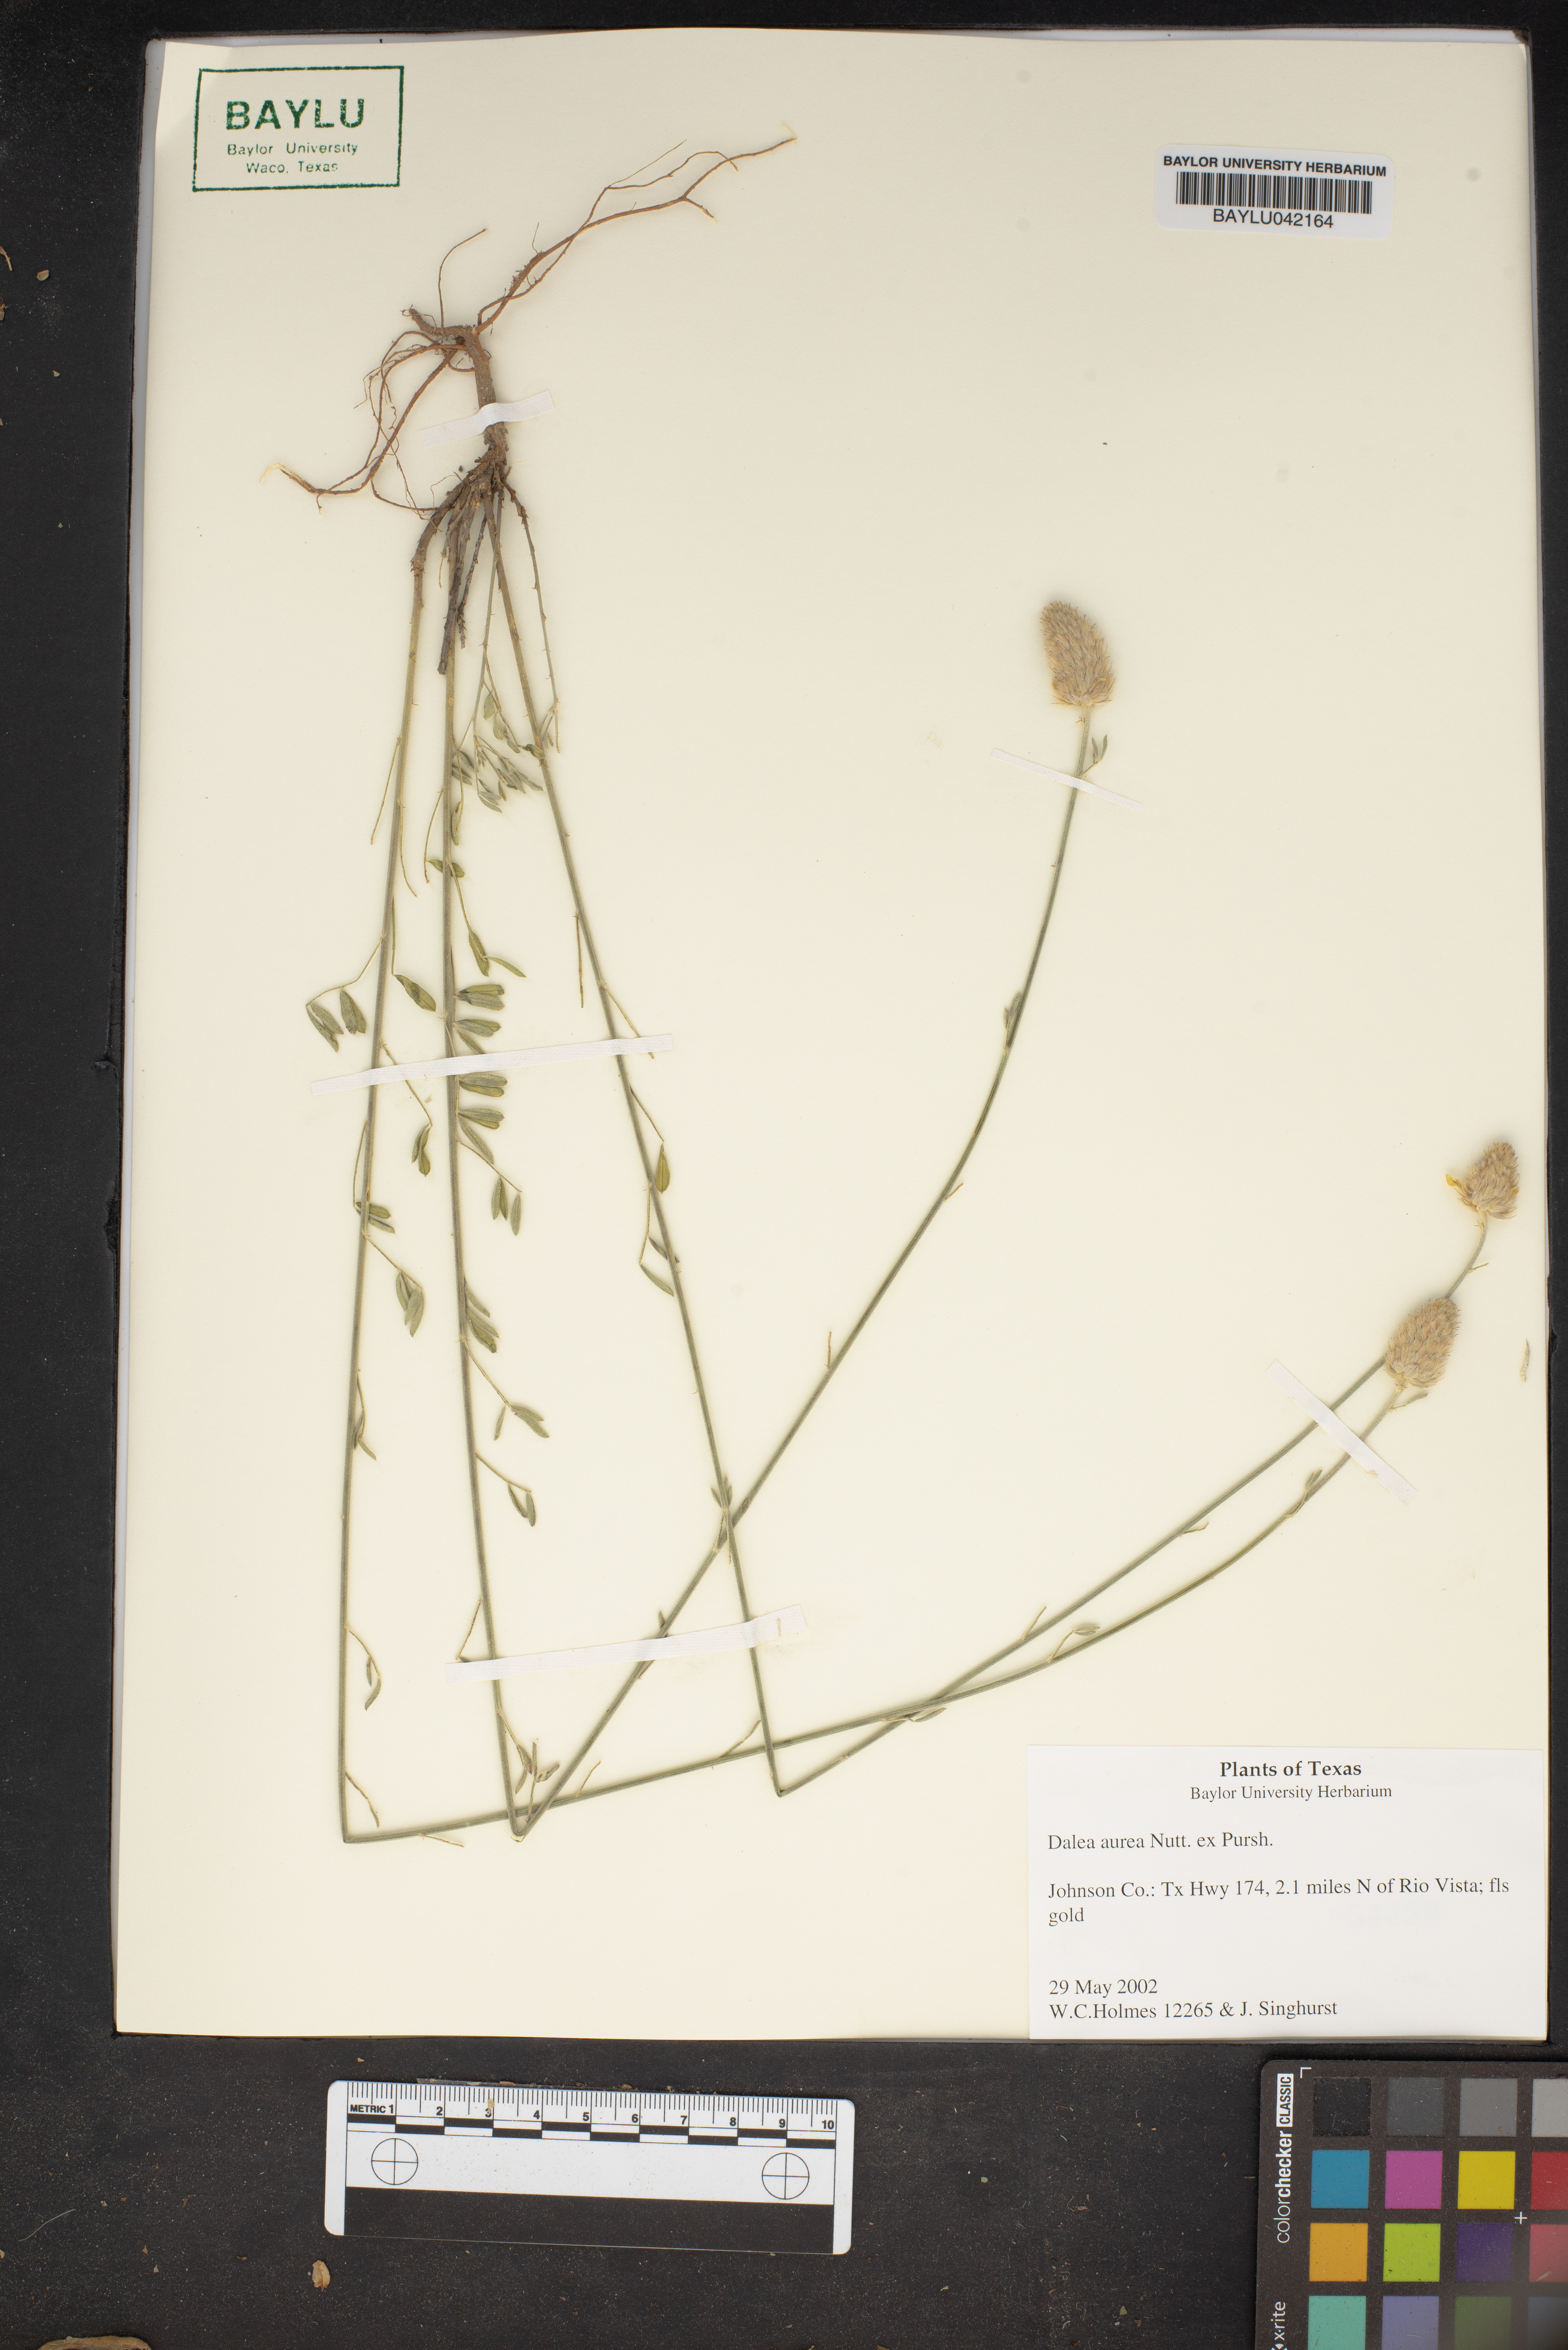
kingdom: Plantae
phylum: Tracheophyta
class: Magnoliopsida
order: Fabales
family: Fabaceae
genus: Dalea
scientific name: Dalea aurea
